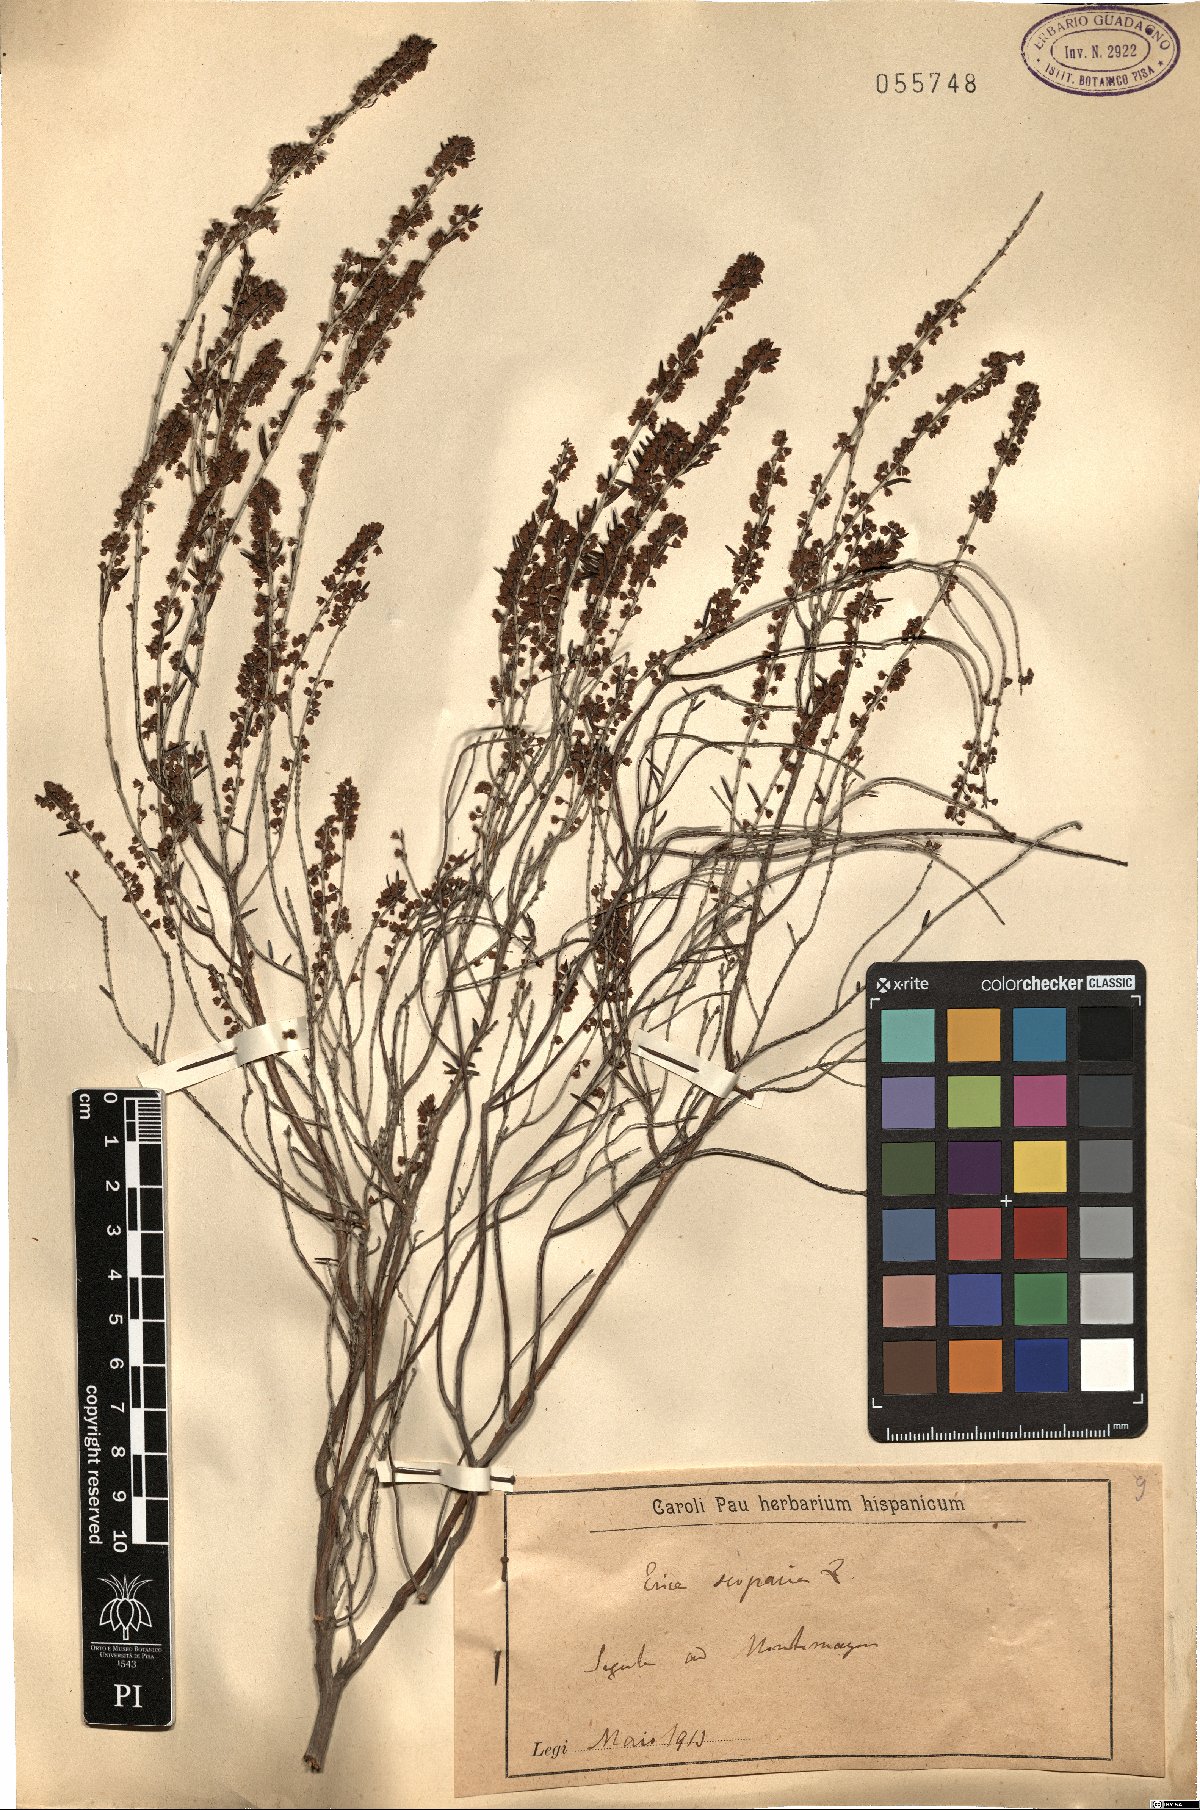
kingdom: Plantae
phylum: Tracheophyta
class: Magnoliopsida
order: Ericales
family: Ericaceae
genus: Erica
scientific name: Erica scoparia
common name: Green heather
